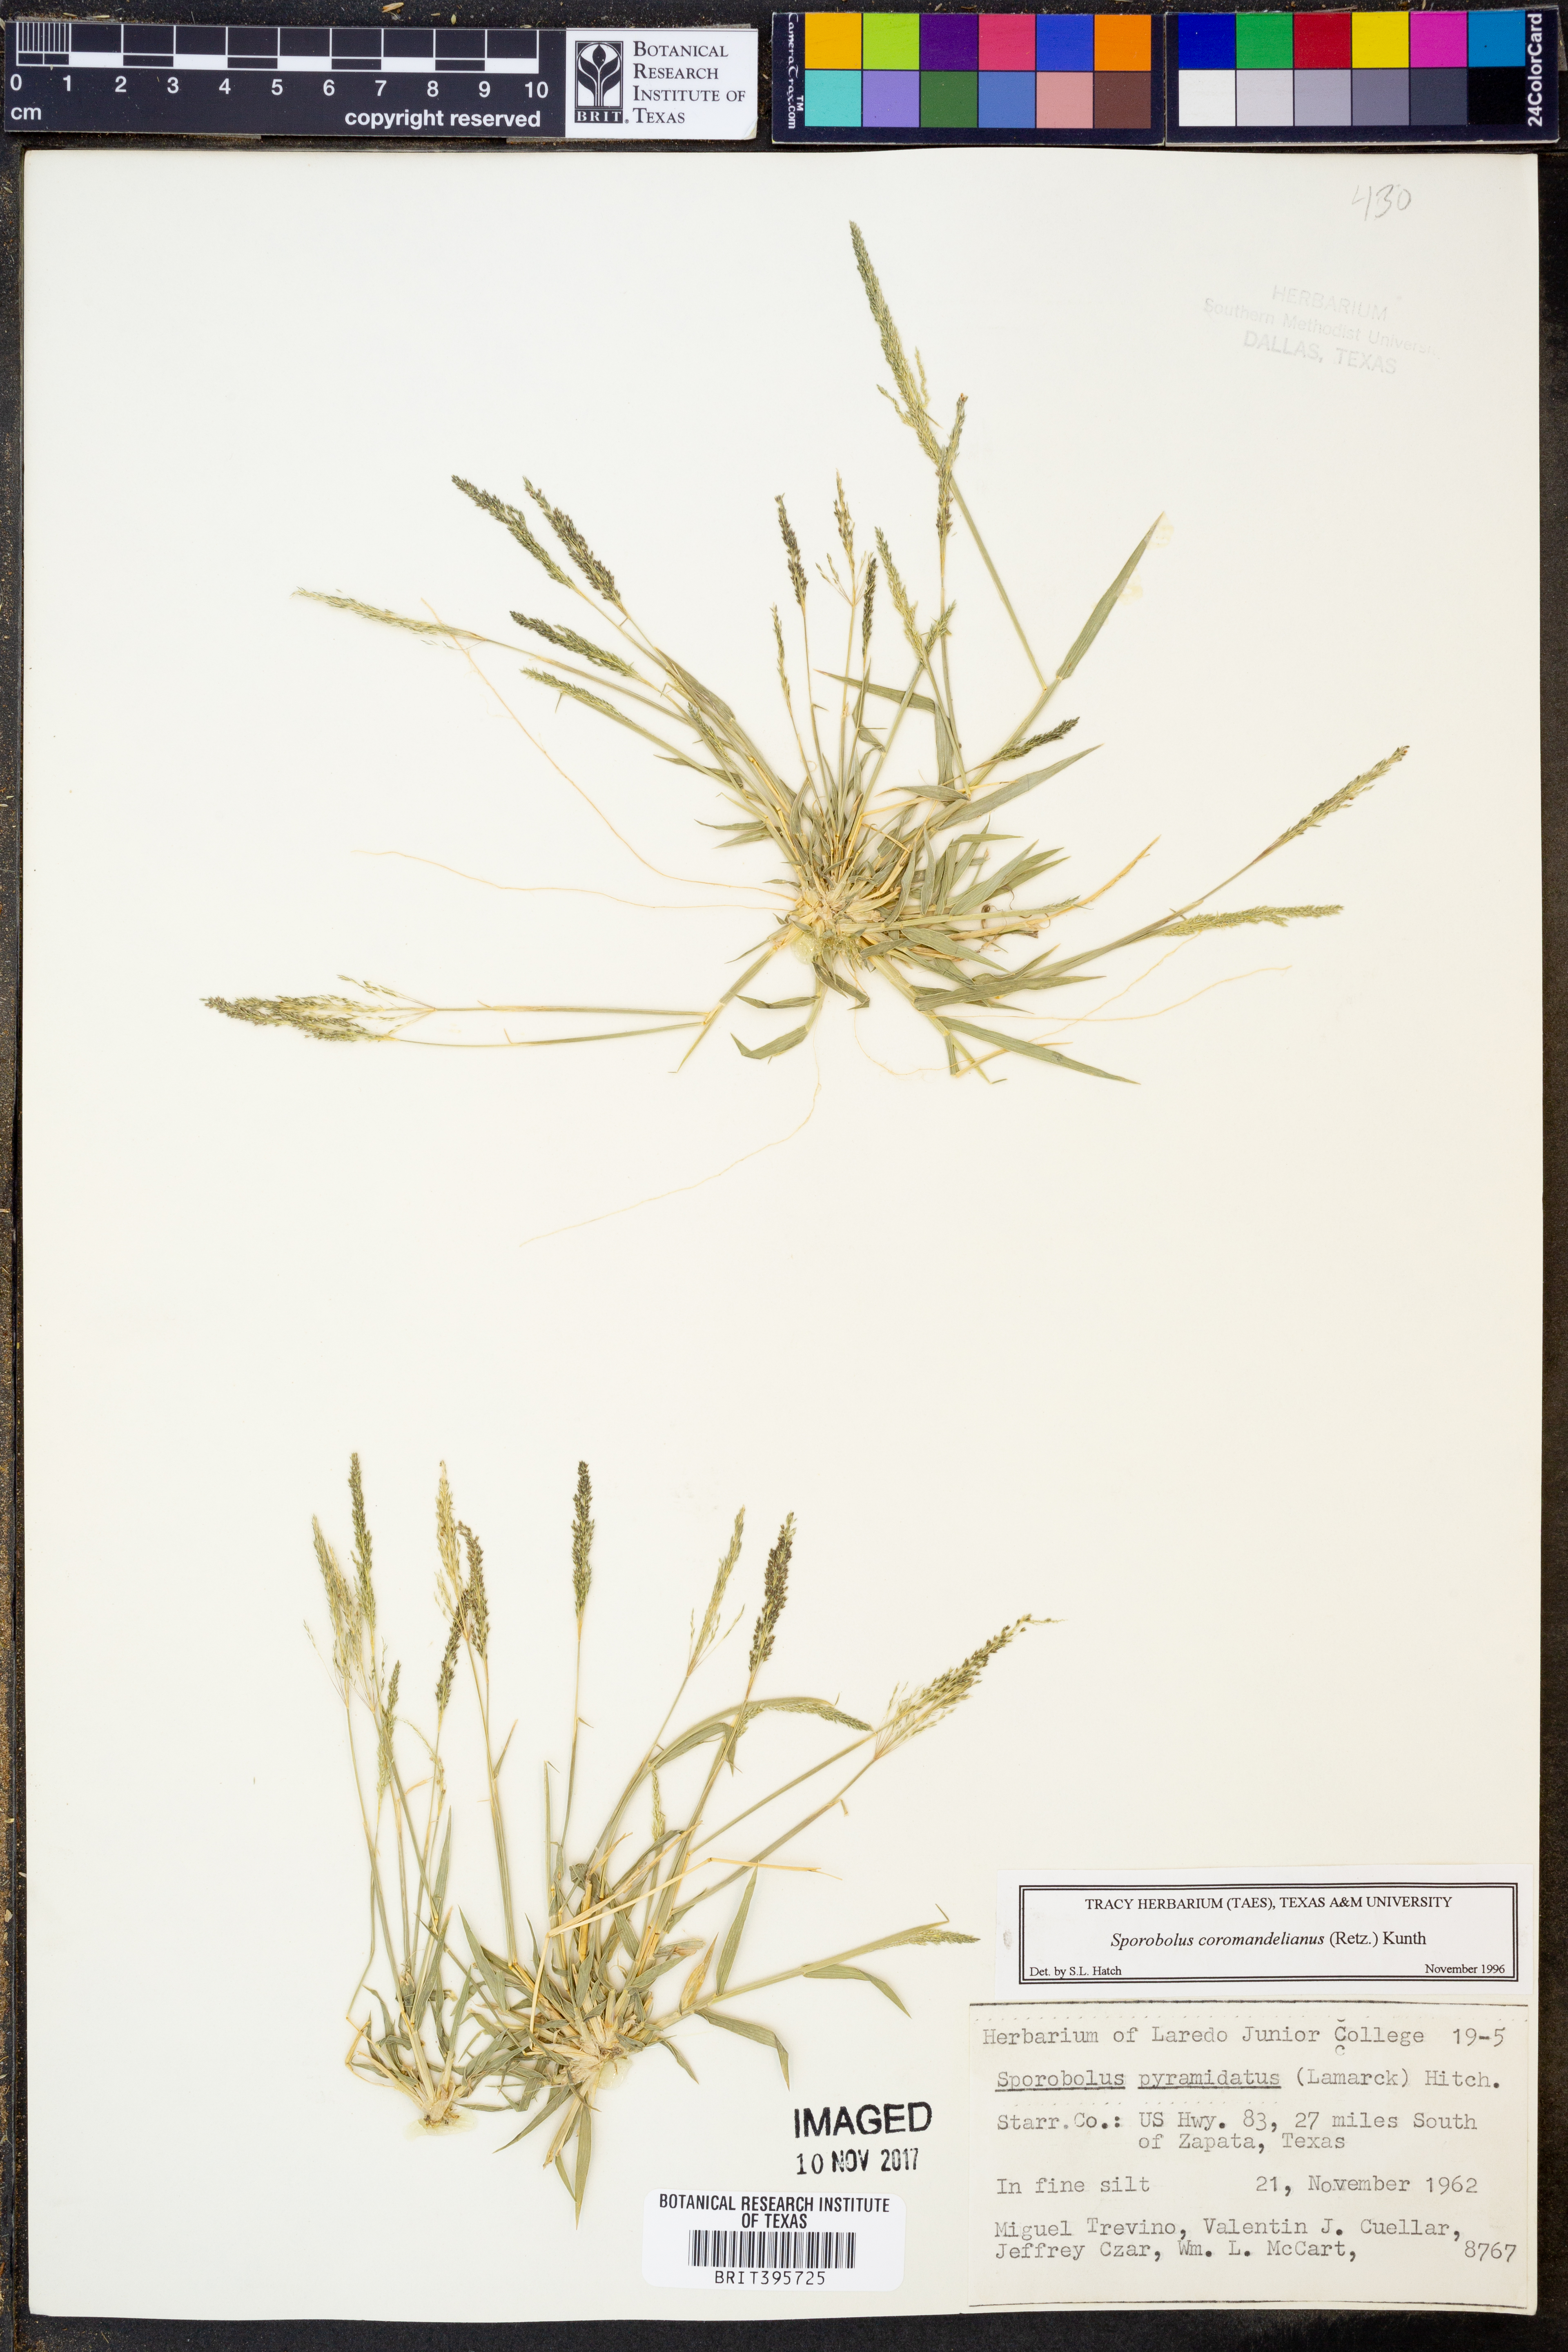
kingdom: Plantae
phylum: Tracheophyta
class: Liliopsida
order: Poales
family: Poaceae
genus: Sporobolus
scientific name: Sporobolus coromandelianus
